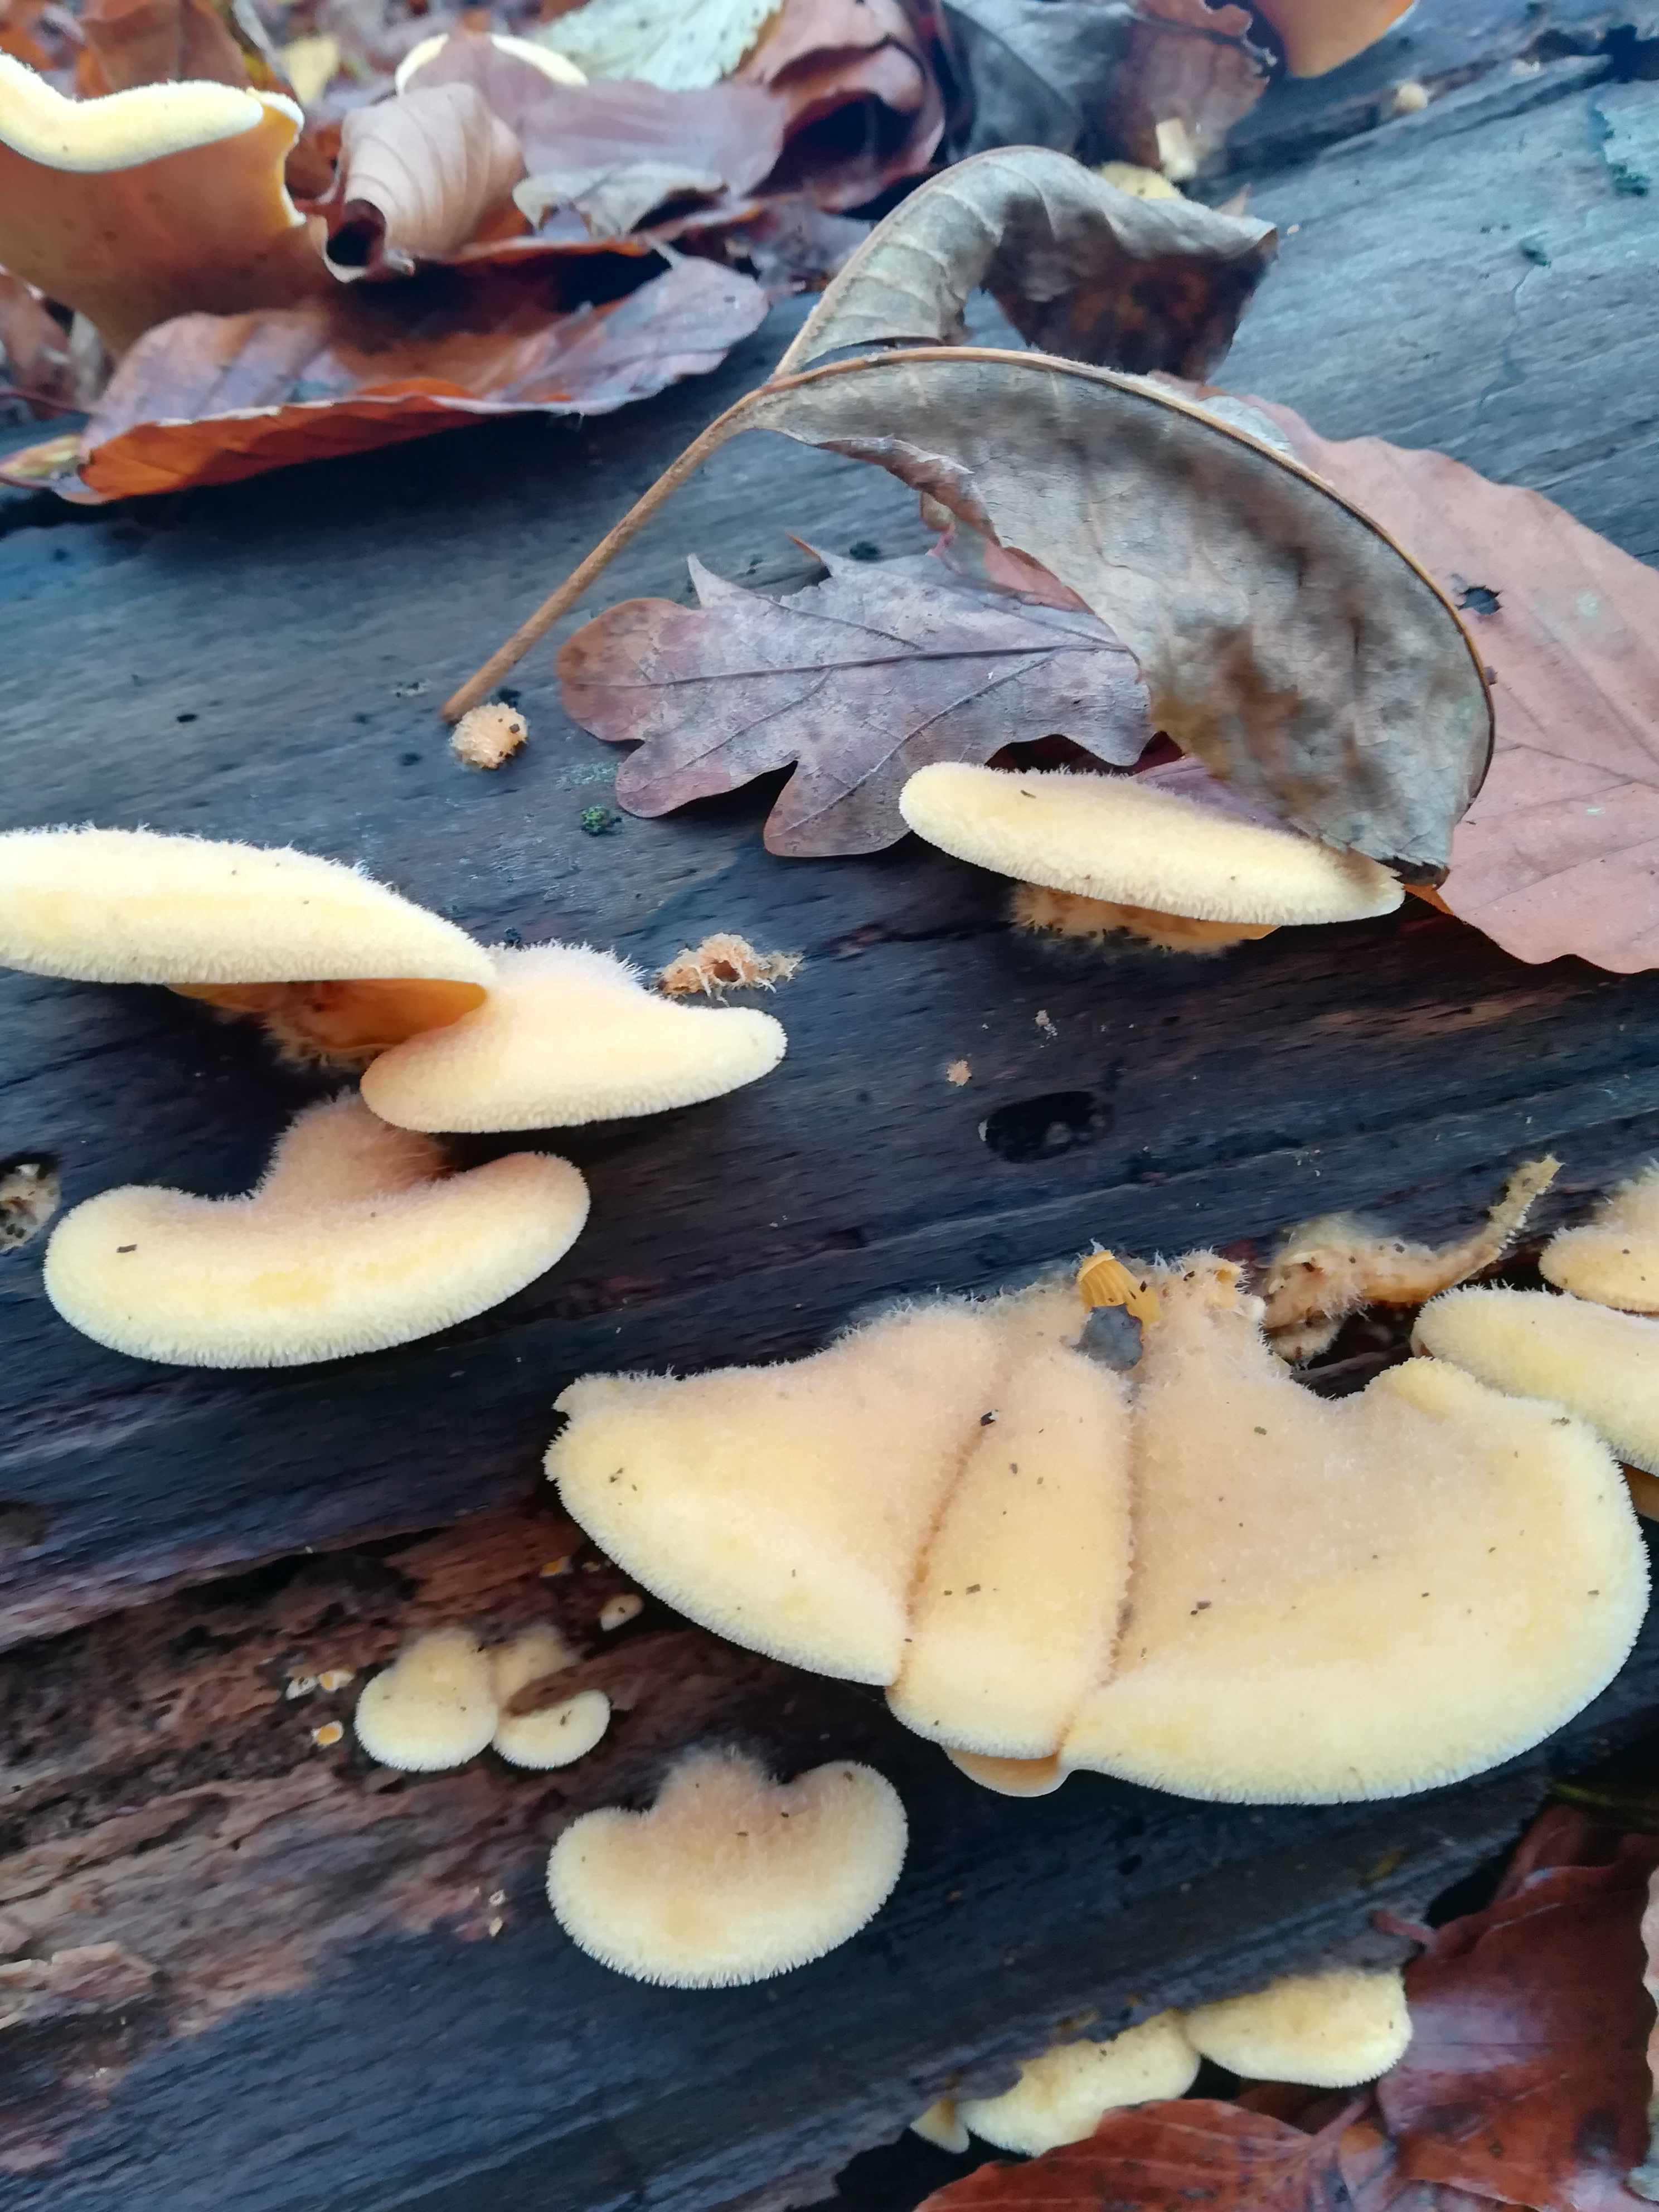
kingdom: Fungi
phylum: Basidiomycota
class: Agaricomycetes
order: Agaricales
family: Phyllotopsidaceae
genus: Phyllotopsis
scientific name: Phyllotopsis nidulans
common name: okkerblad
